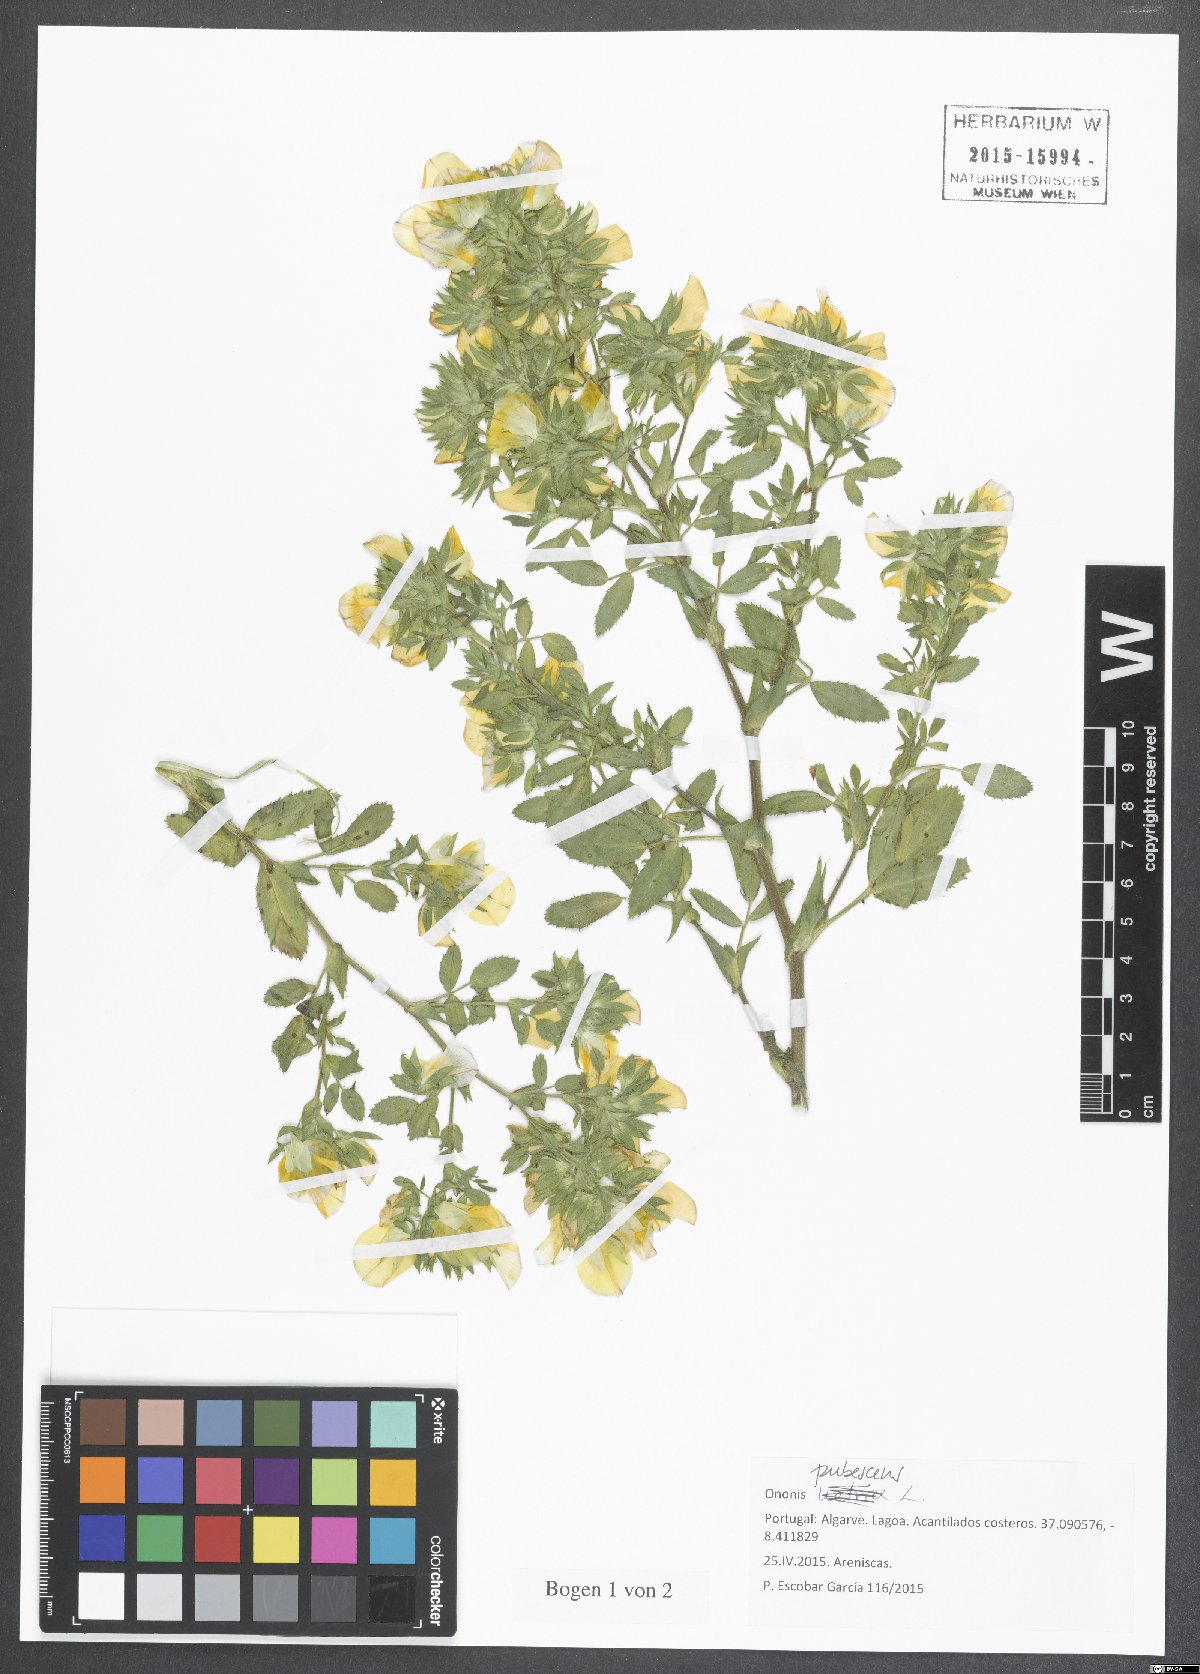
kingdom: Plantae
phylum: Tracheophyta
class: Magnoliopsida
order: Fabales
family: Fabaceae
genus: Ononis
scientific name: Ononis pubescens
